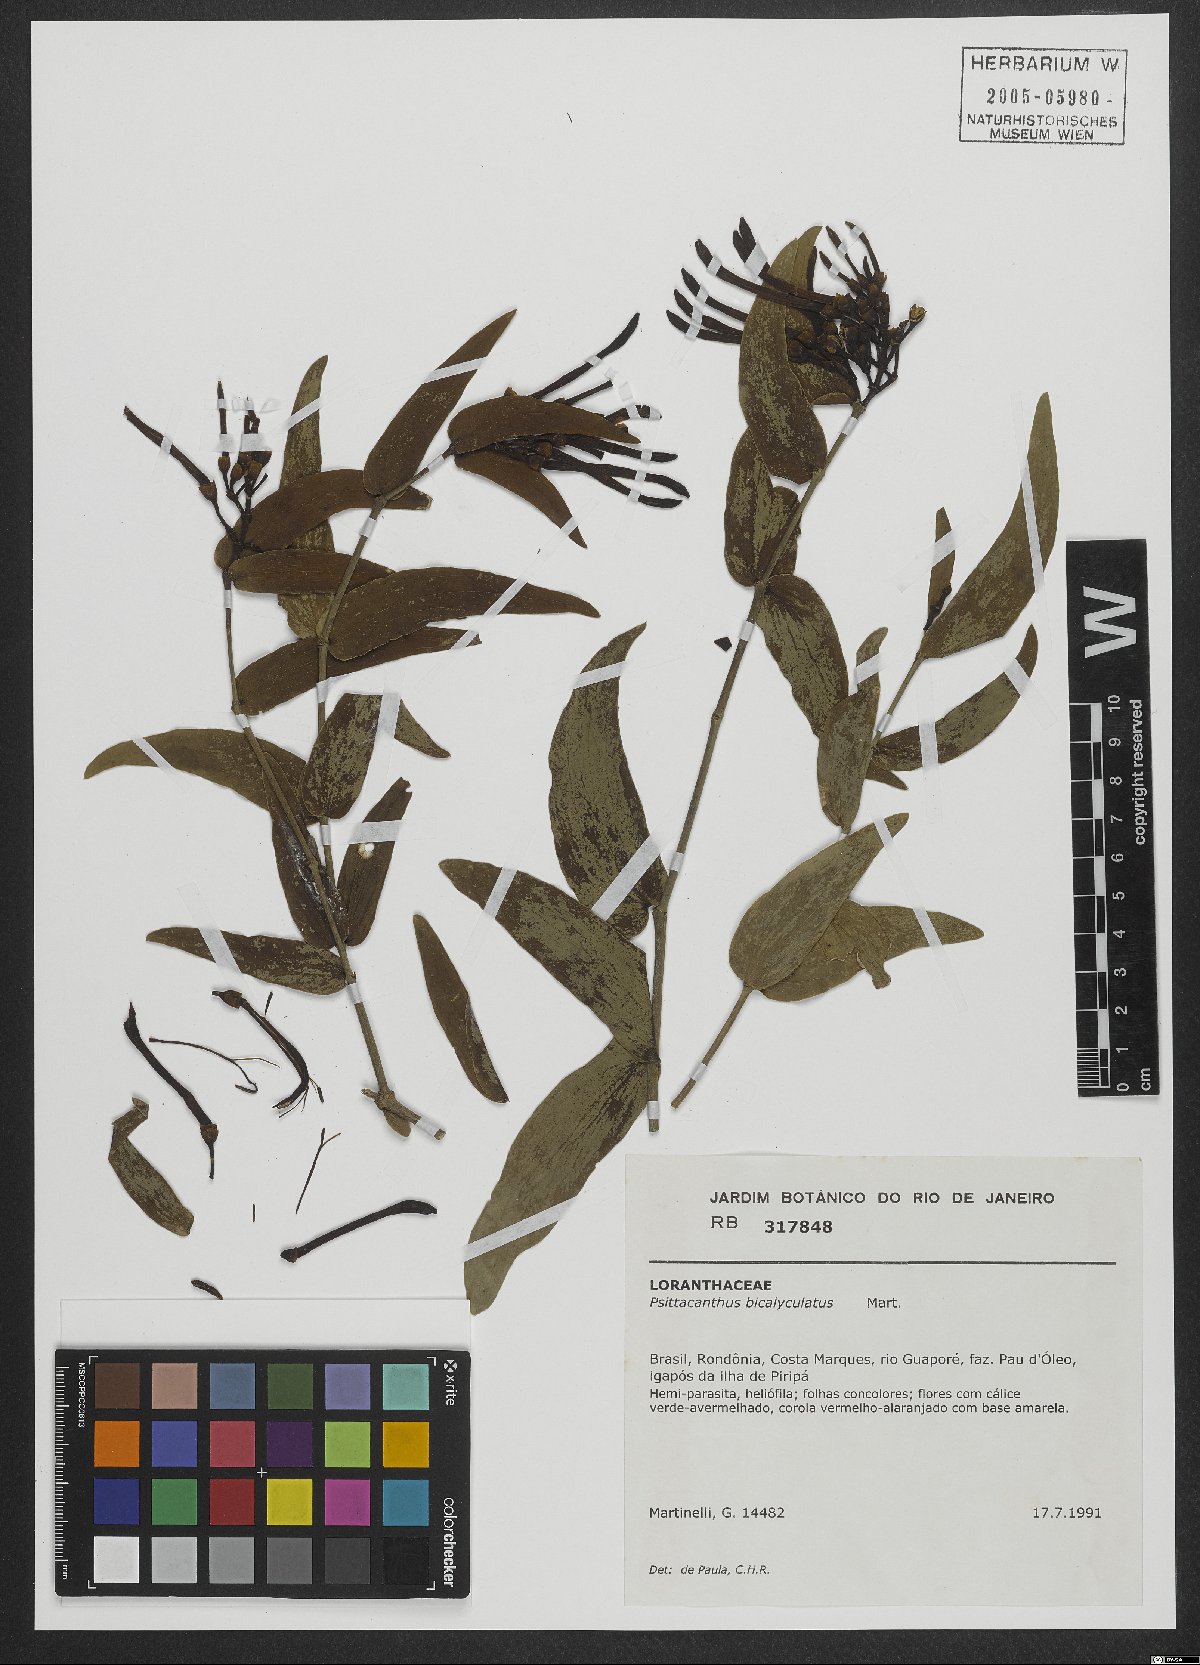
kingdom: Plantae
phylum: Tracheophyta
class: Magnoliopsida
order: Santalales
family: Loranthaceae
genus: Psittacanthus
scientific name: Psittacanthus cordatus
